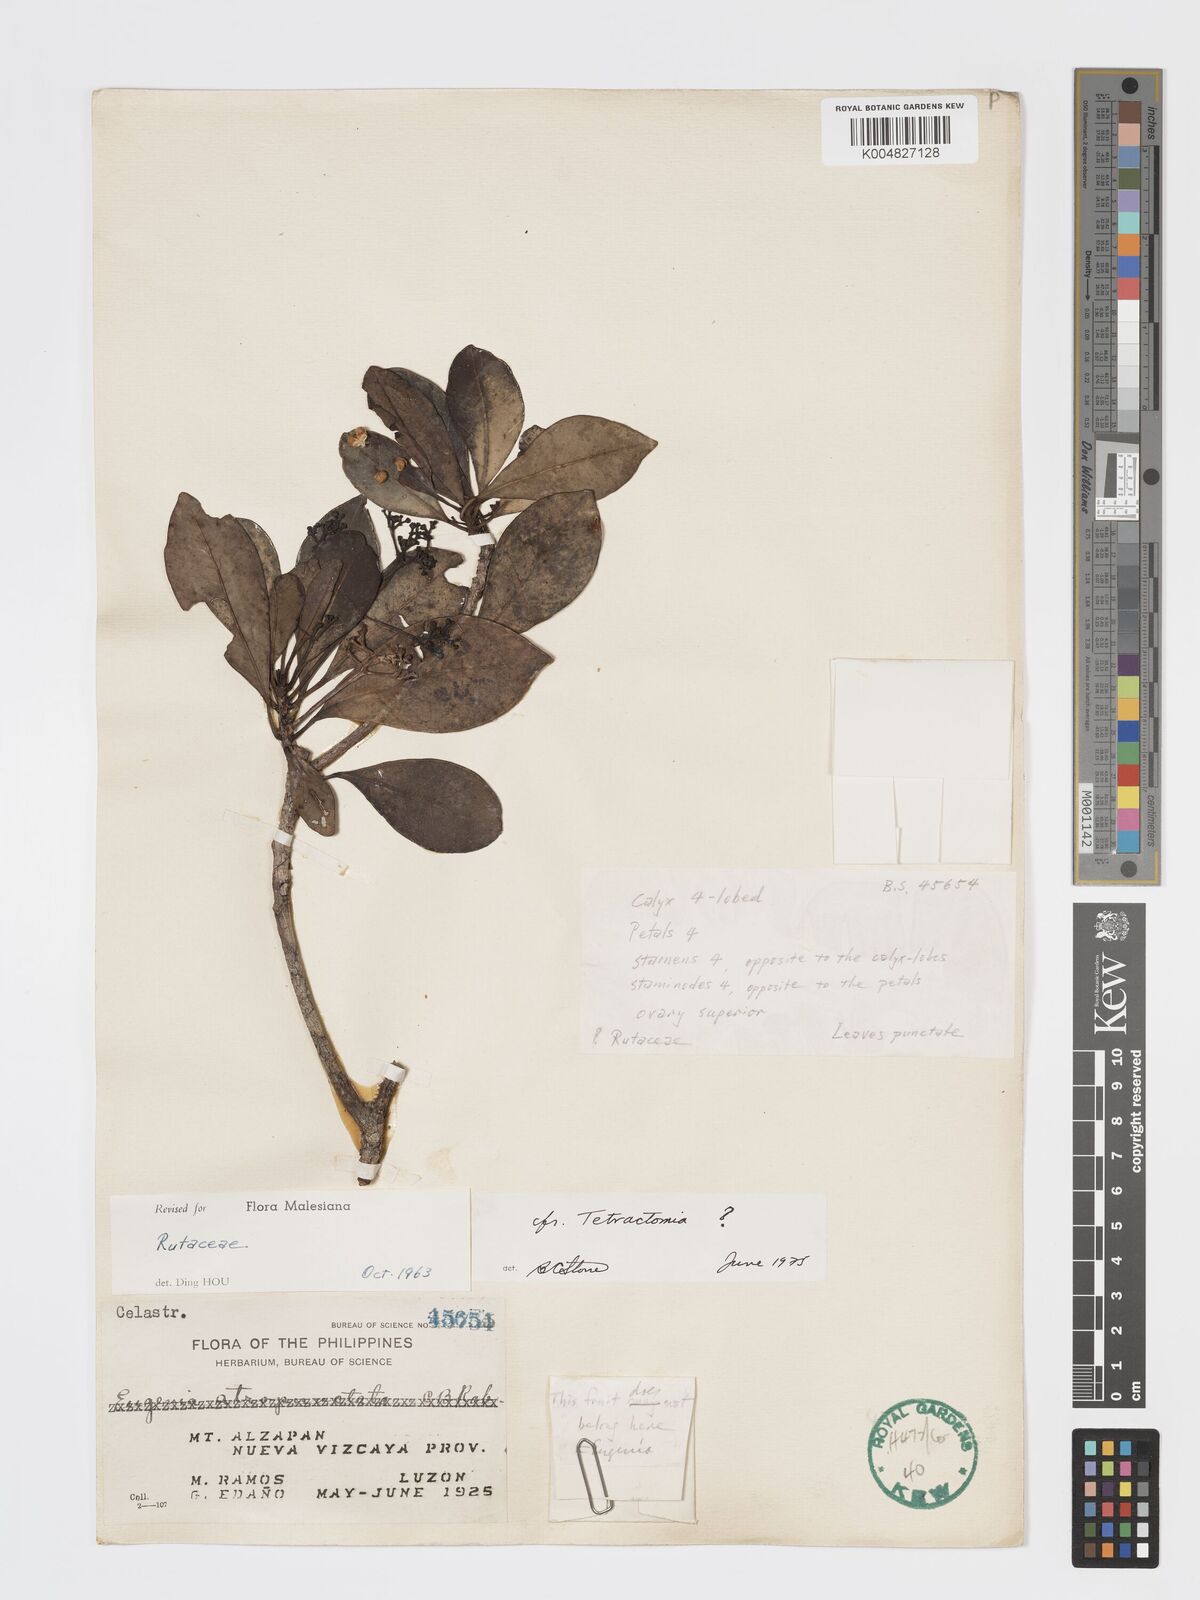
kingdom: Plantae
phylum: Tracheophyta
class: Magnoliopsida
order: Sapindales
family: Rutaceae
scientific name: Rutaceae
